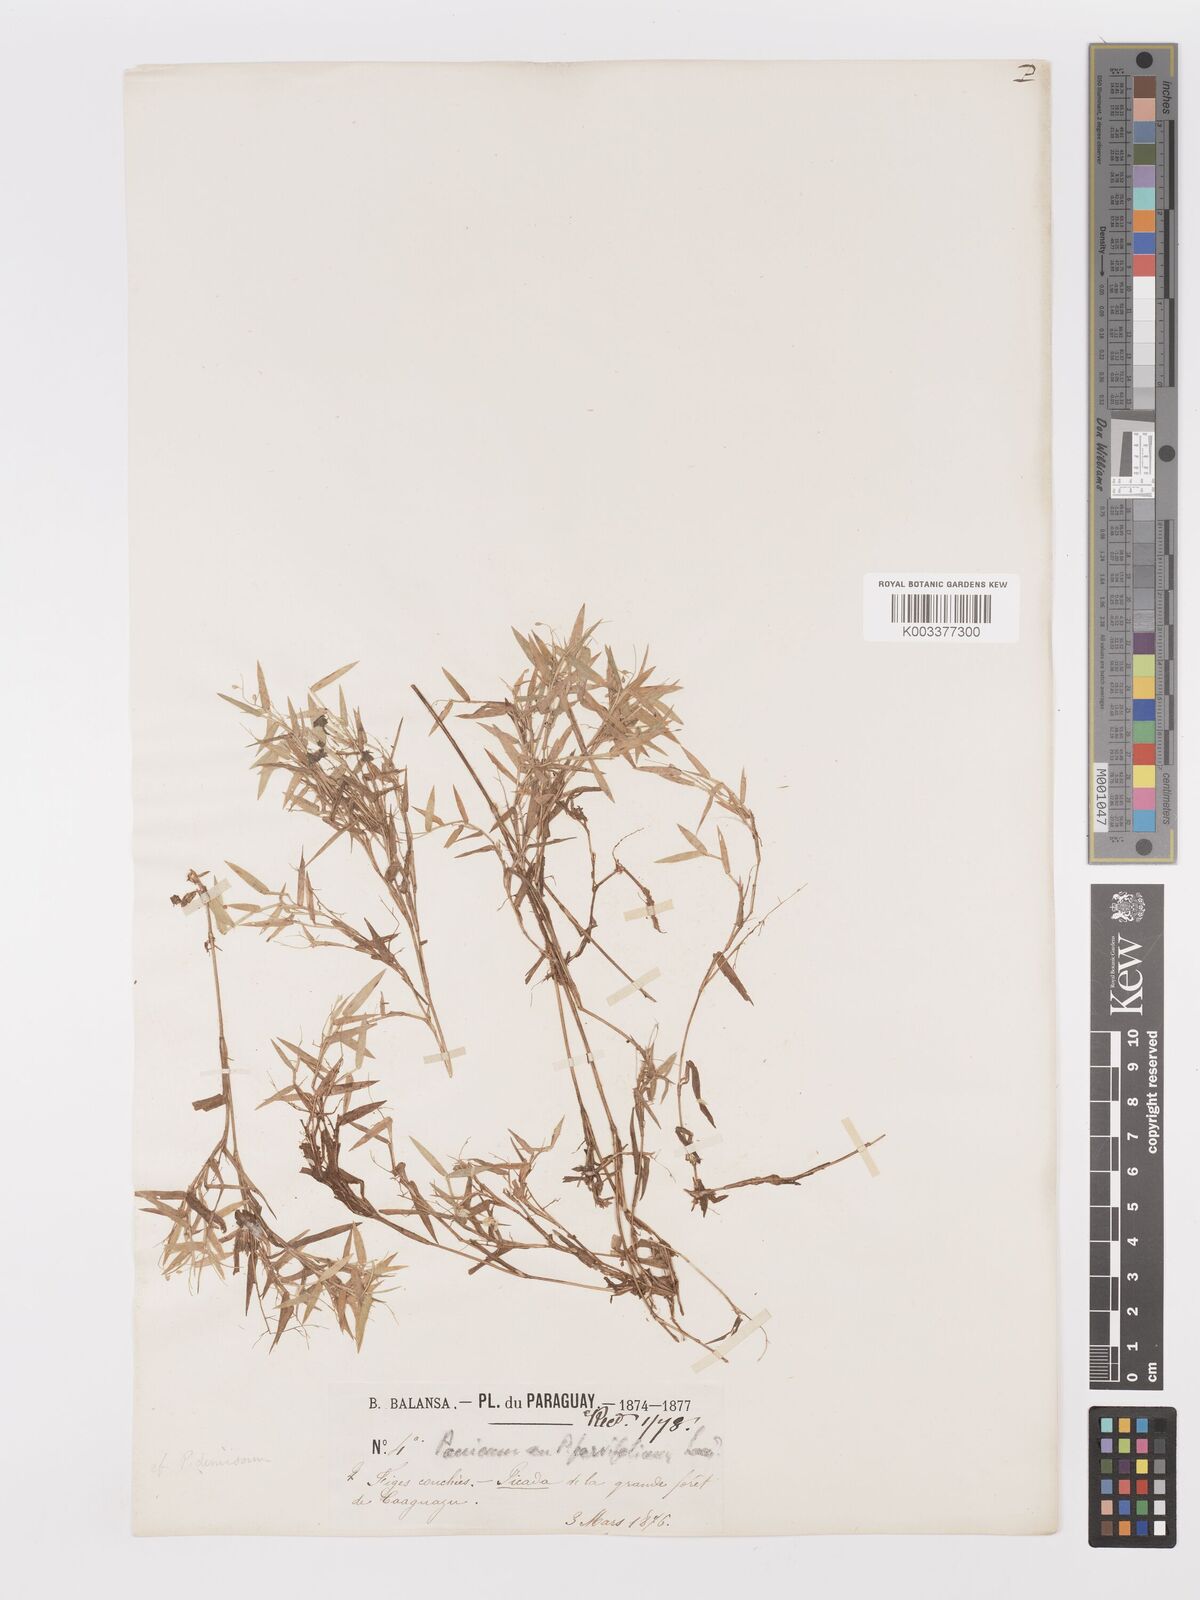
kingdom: Plantae
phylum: Tracheophyta
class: Liliopsida
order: Poales
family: Poaceae
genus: Dichanthelium
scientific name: Dichanthelium sabulorum
